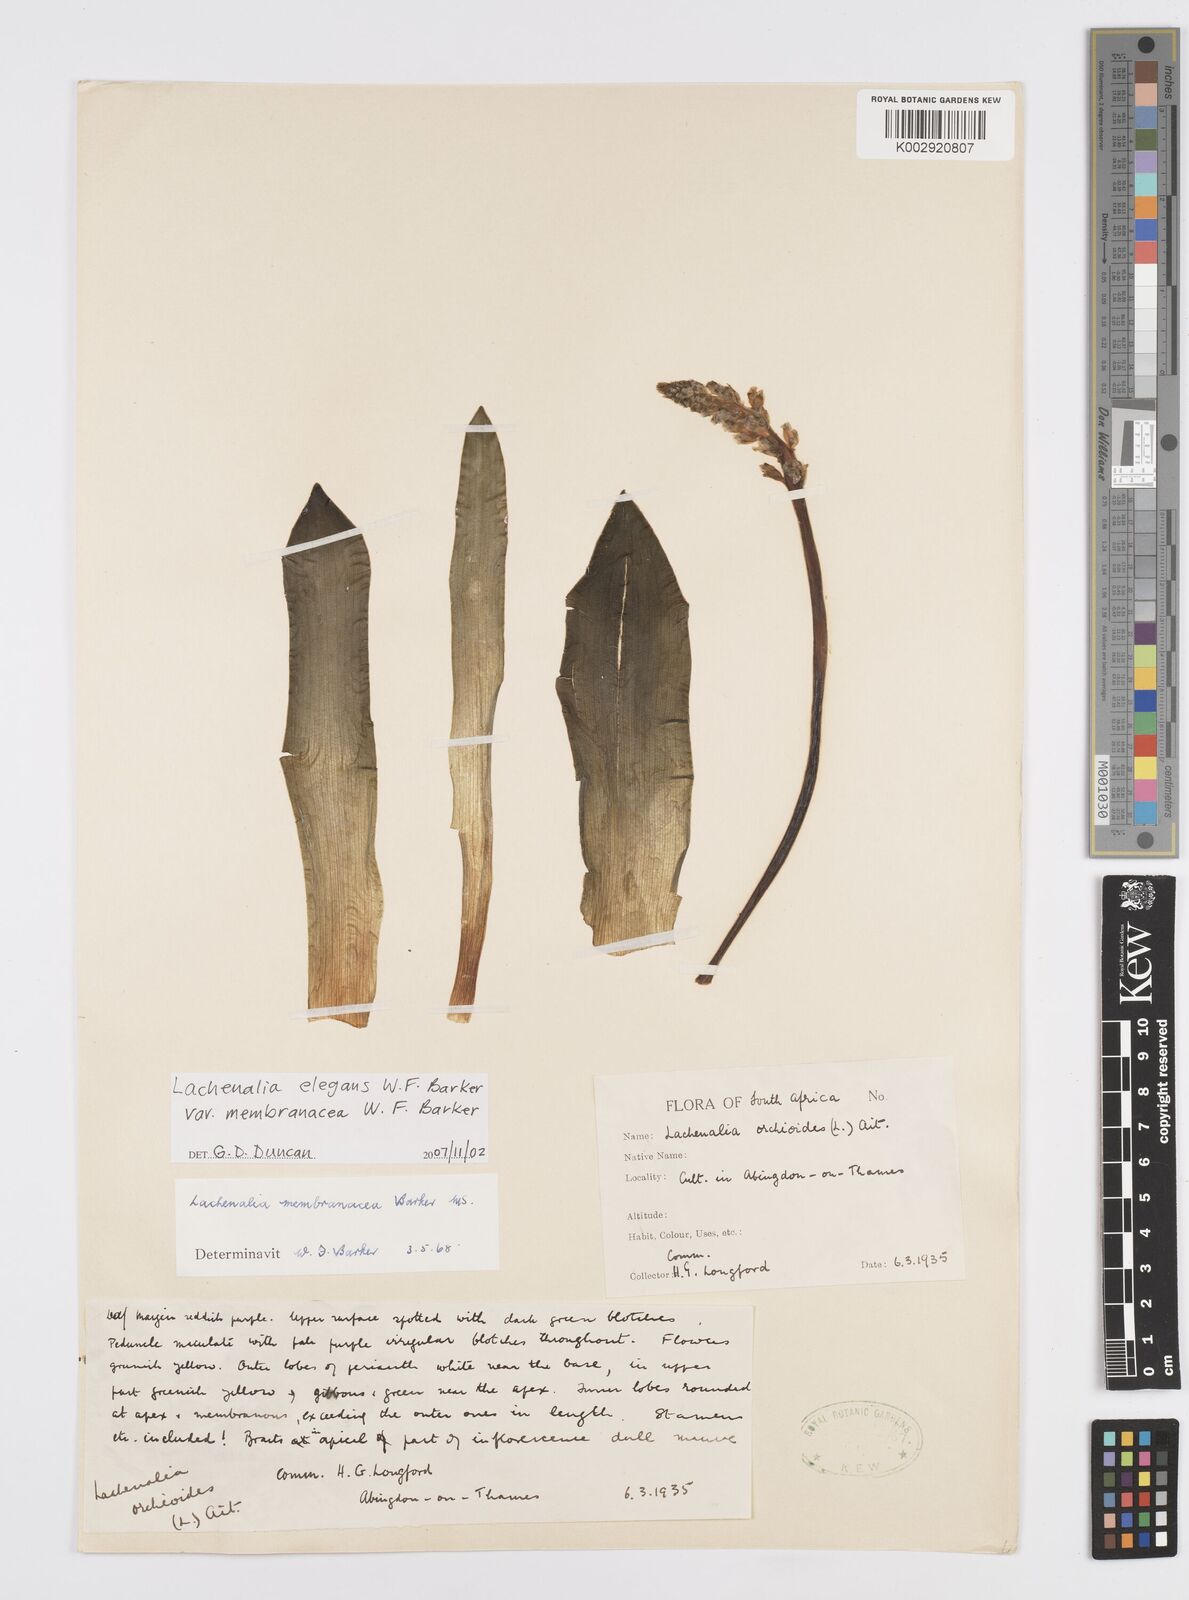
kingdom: Plantae
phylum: Tracheophyta
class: Liliopsida
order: Asparagales
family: Asparagaceae
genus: Lachenalia
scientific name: Lachenalia membranacea
